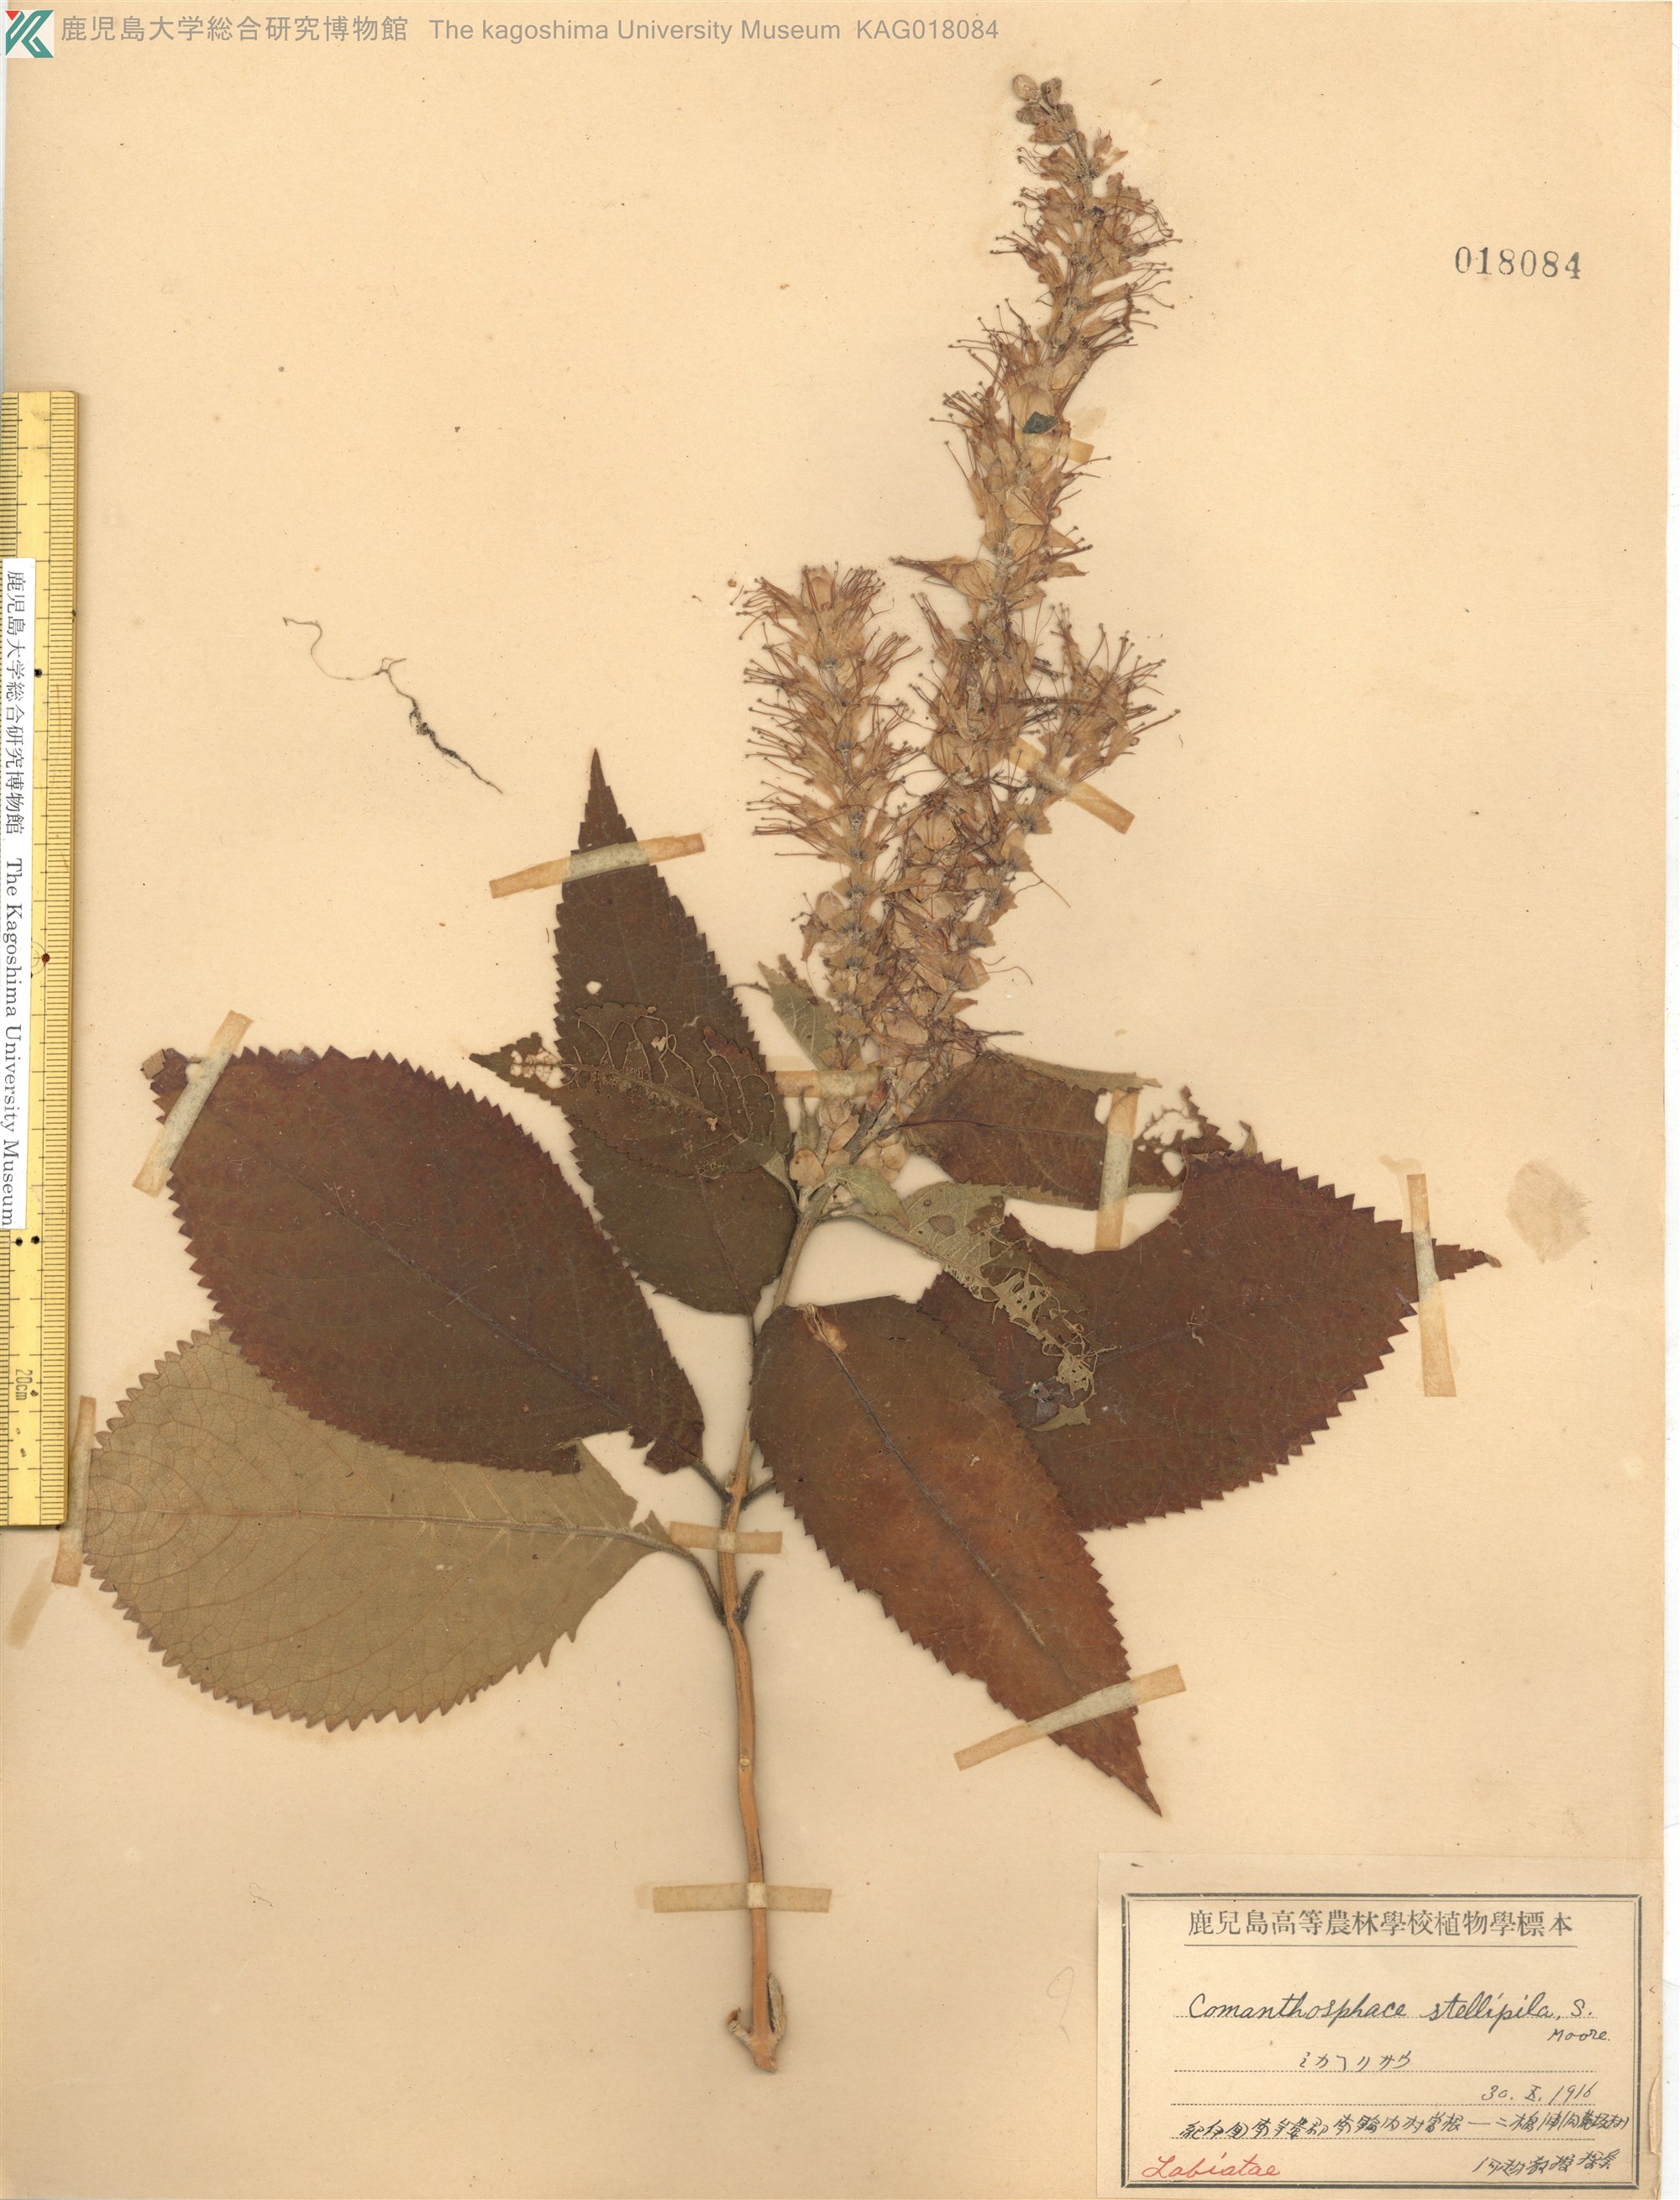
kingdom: Plantae
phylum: Tracheophyta
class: Magnoliopsida
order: Lamiales
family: Lamiaceae
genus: Comanthosphace
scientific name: Comanthosphace stellipila
